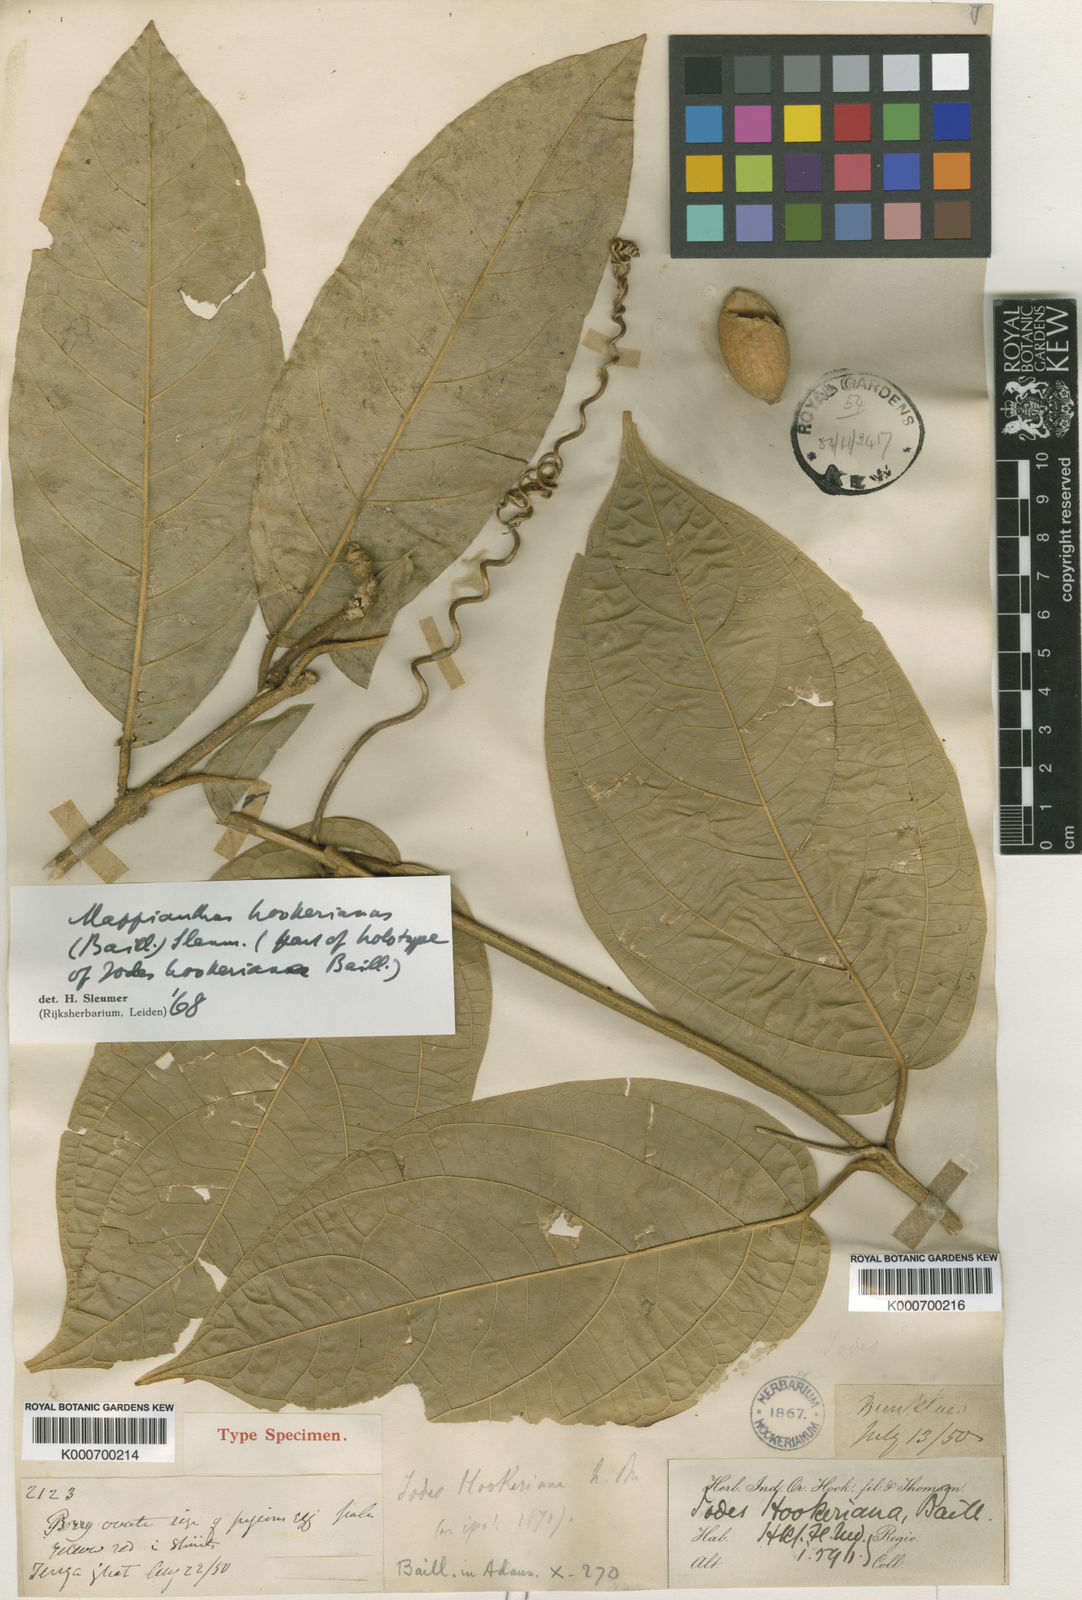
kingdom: Plantae
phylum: Tracheophyta
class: Magnoliopsida
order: Icacinales
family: Icacinaceae
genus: Mappianthus
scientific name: Mappianthus
